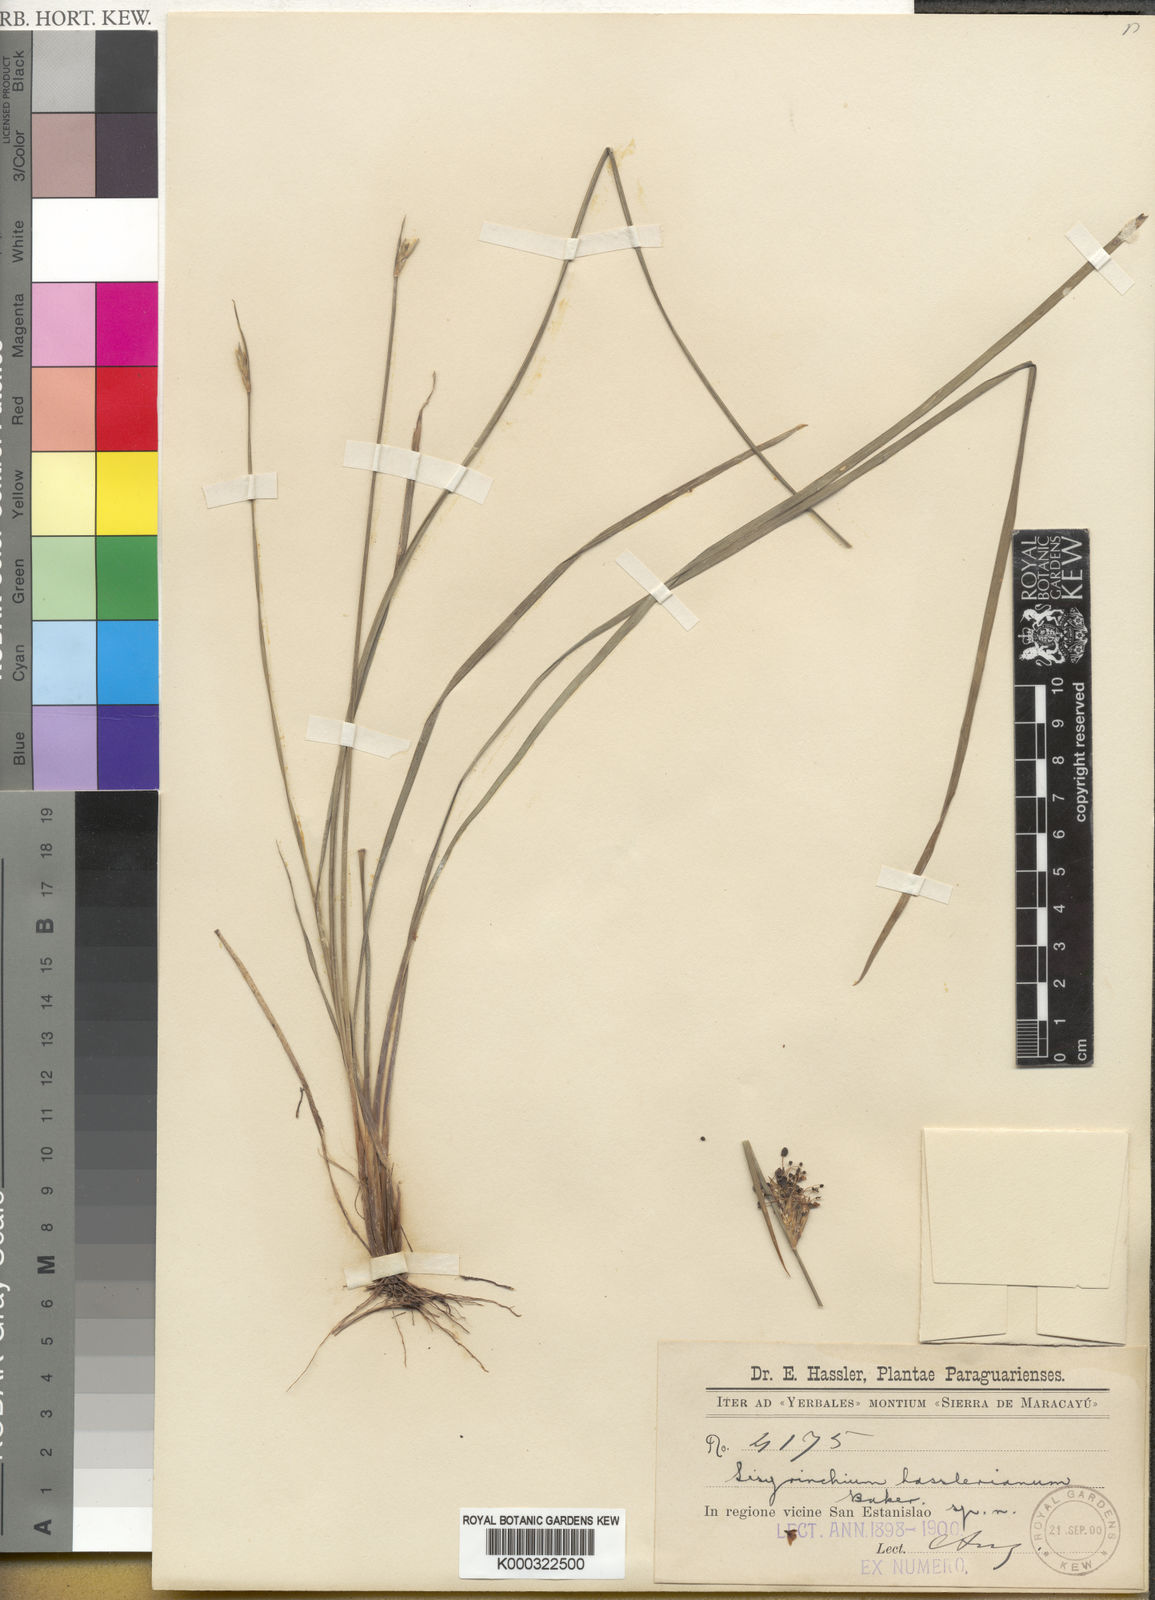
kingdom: Plantae
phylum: Tracheophyta
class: Liliopsida
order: Asparagales
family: Iridaceae
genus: Sisyrinchium
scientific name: Sisyrinchium hasslerianum
